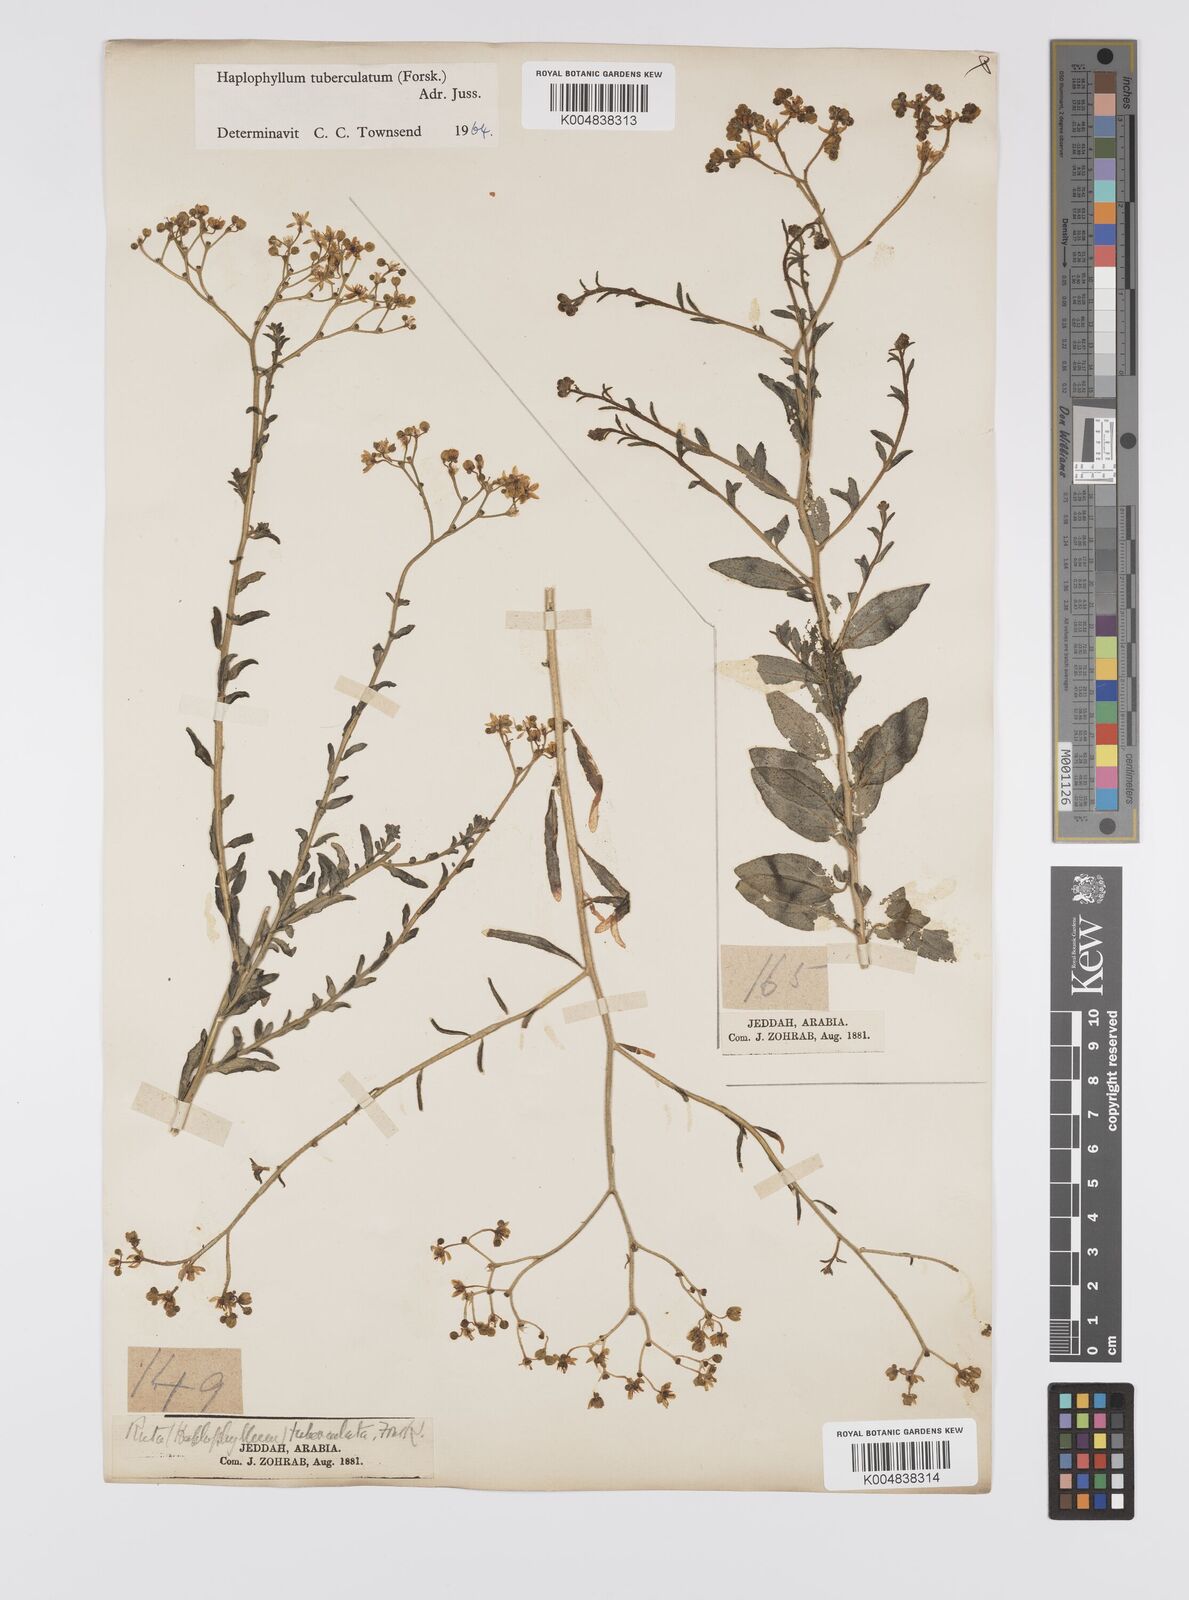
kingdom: Plantae
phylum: Tracheophyta
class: Magnoliopsida
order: Sapindales
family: Rutaceae
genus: Haplophyllum
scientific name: Haplophyllum tuberculatum
